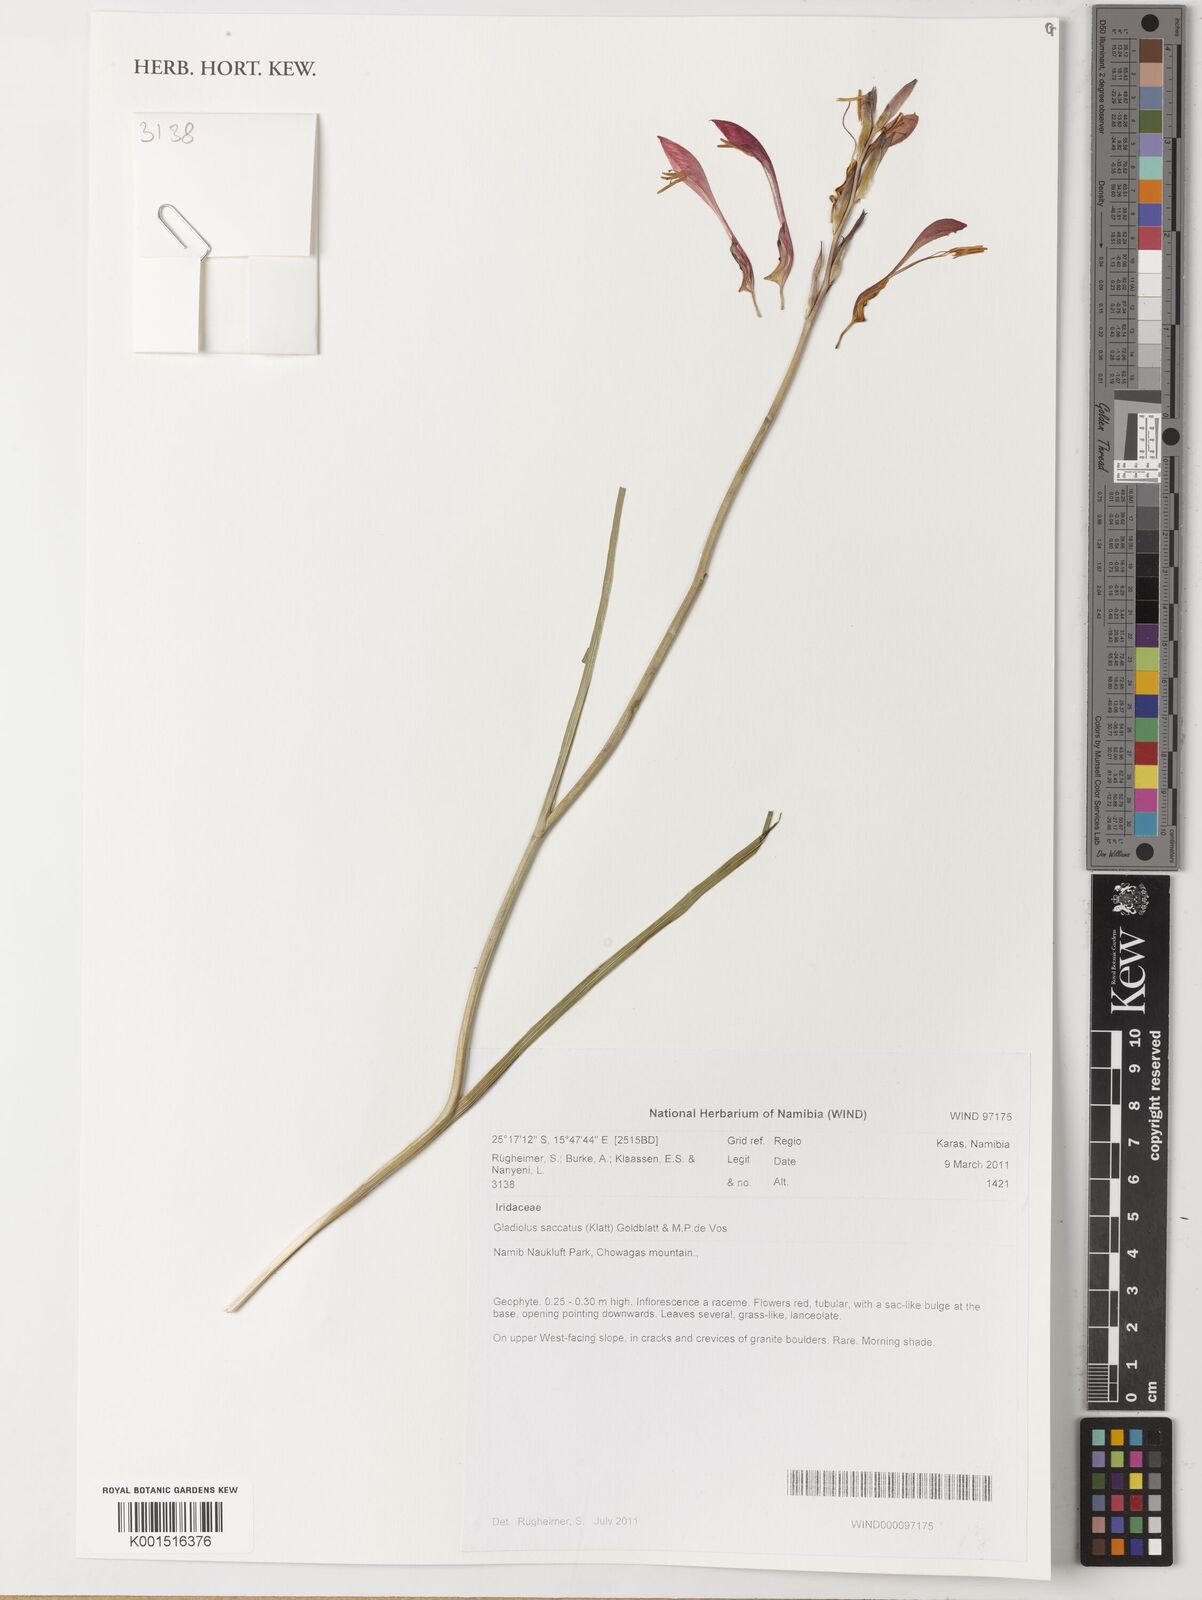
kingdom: Plantae
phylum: Tracheophyta
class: Liliopsida
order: Asparagales
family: Iridaceae
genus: Gladiolus
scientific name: Gladiolus saccatus
